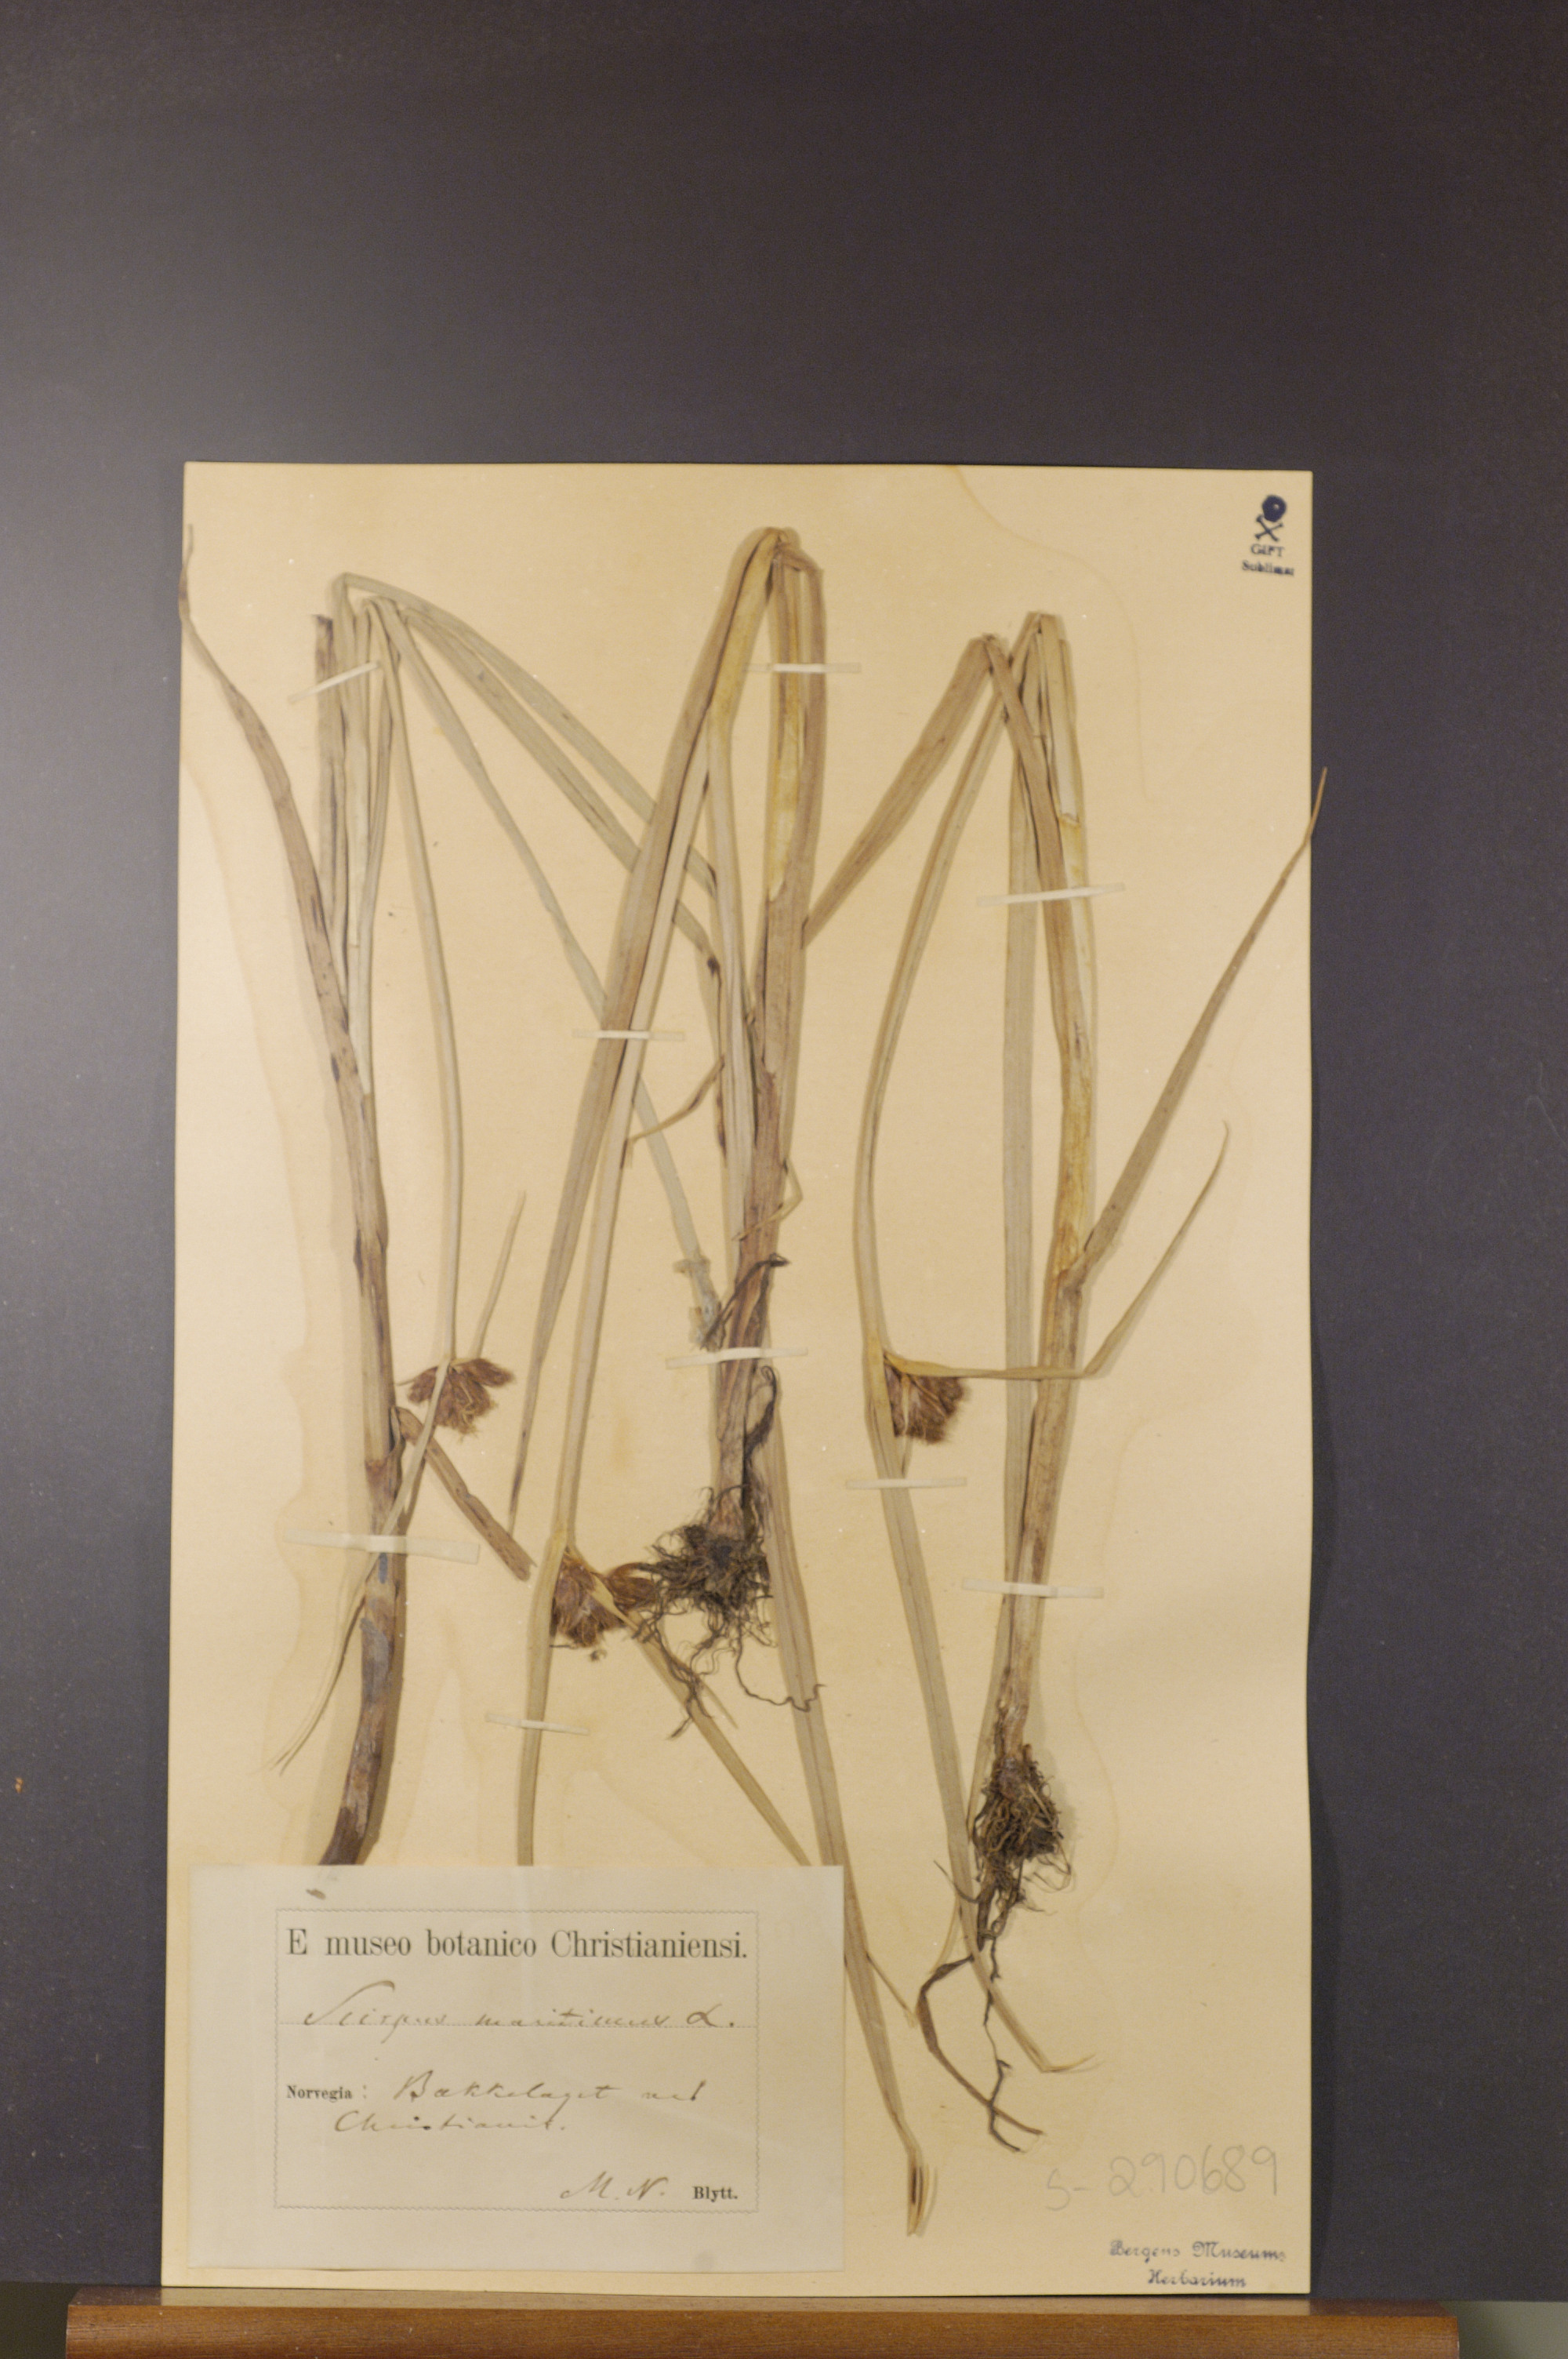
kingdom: Plantae
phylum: Tracheophyta
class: Liliopsida
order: Poales
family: Cyperaceae
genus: Bolboschoenus
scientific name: Bolboschoenus maritimus
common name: Sea club-rush
